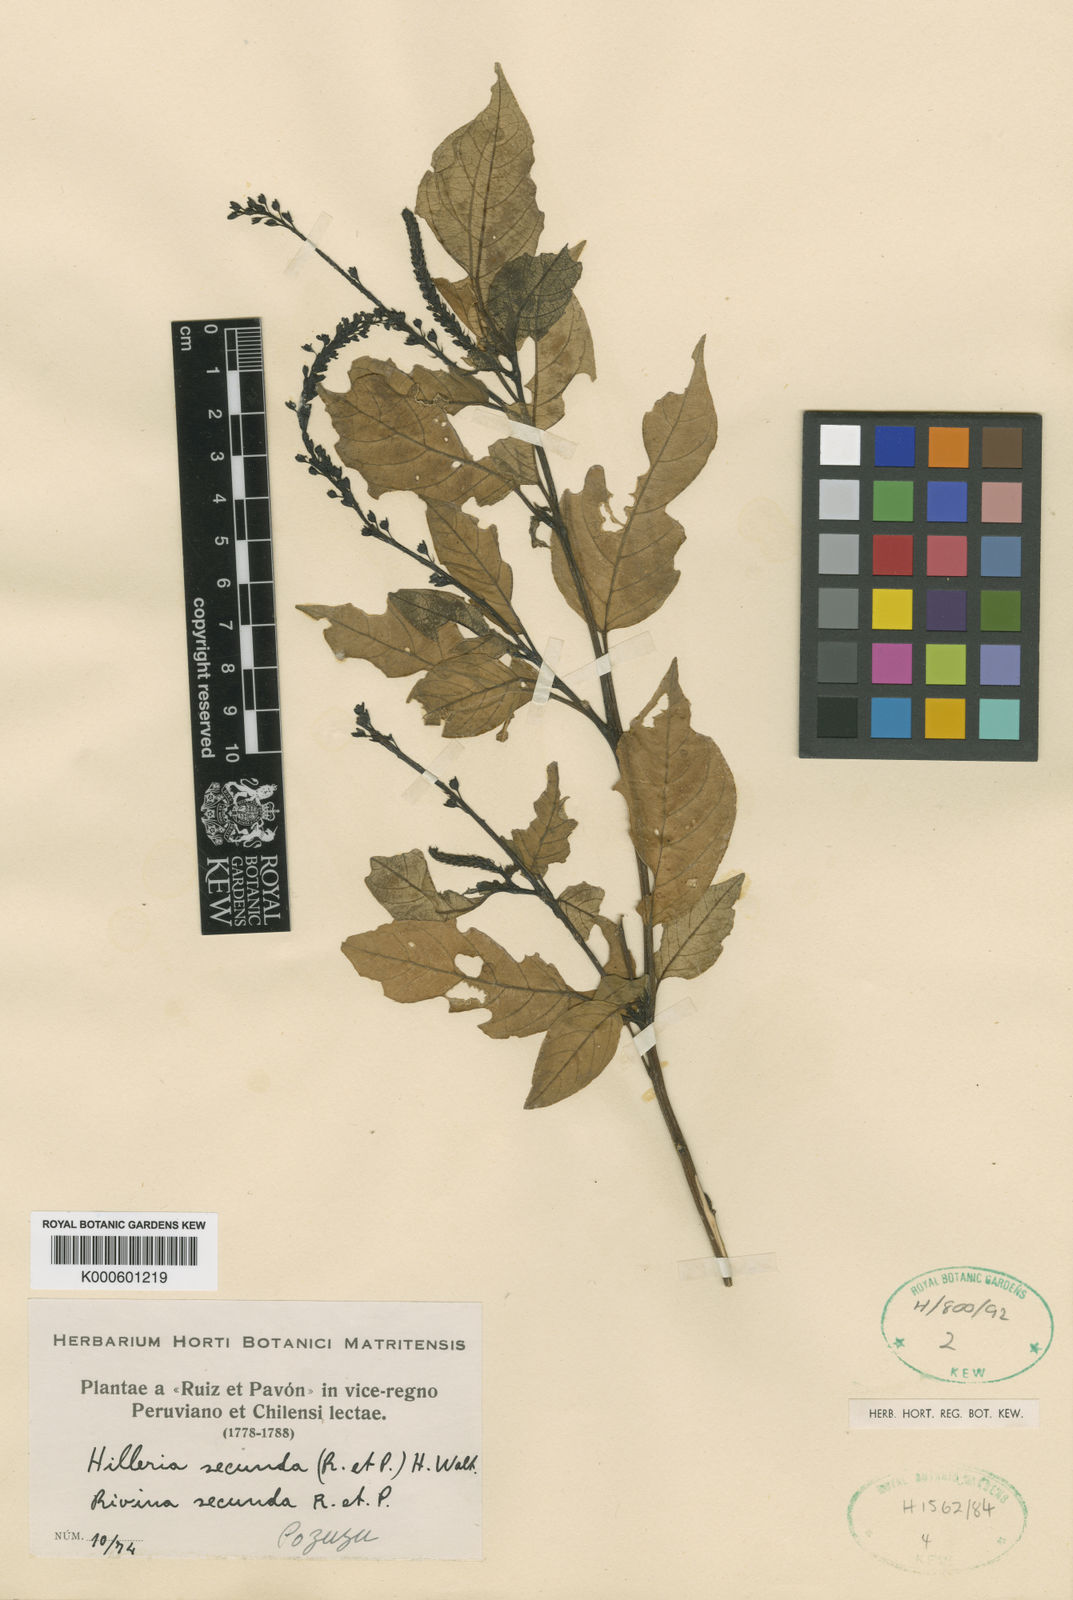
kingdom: Plantae
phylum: Tracheophyta
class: Magnoliopsida
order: Caryophyllales
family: Phytolaccaceae
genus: Rivina
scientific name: Rivina humilis
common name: Rougeplant
